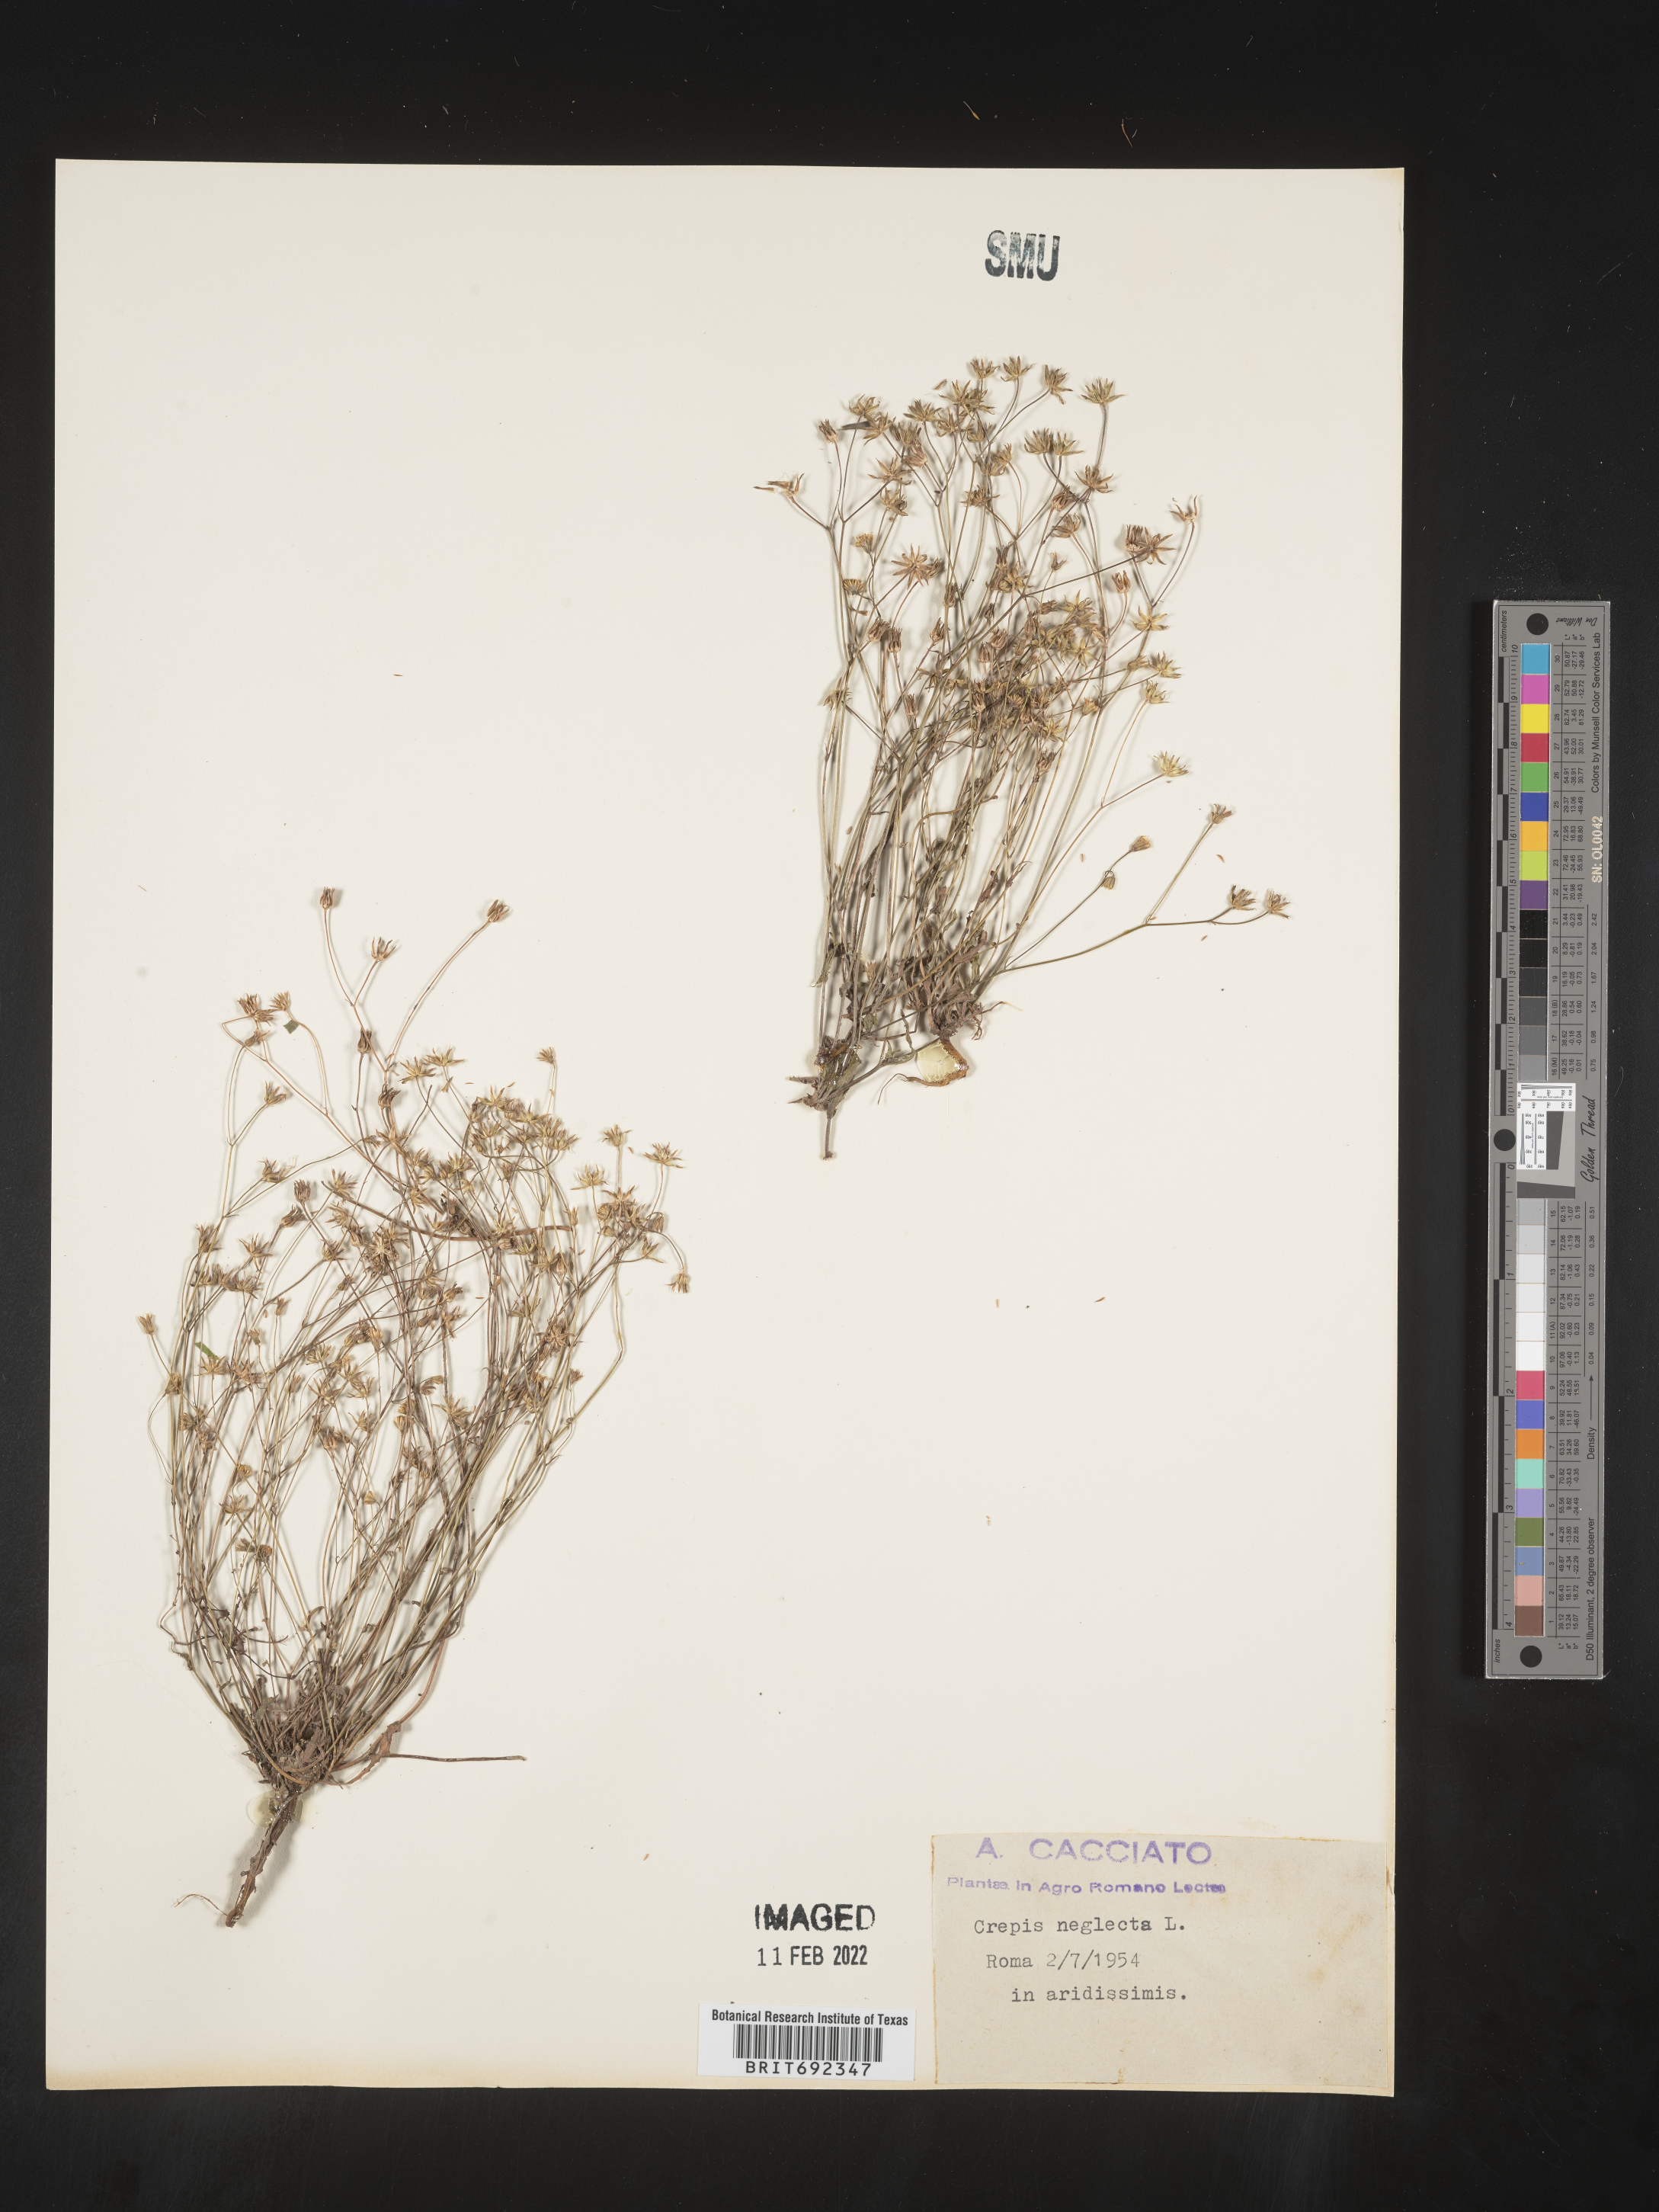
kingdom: Plantae
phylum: Tracheophyta
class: Magnoliopsida
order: Asterales
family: Asteraceae
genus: Crepis
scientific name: Crepis
